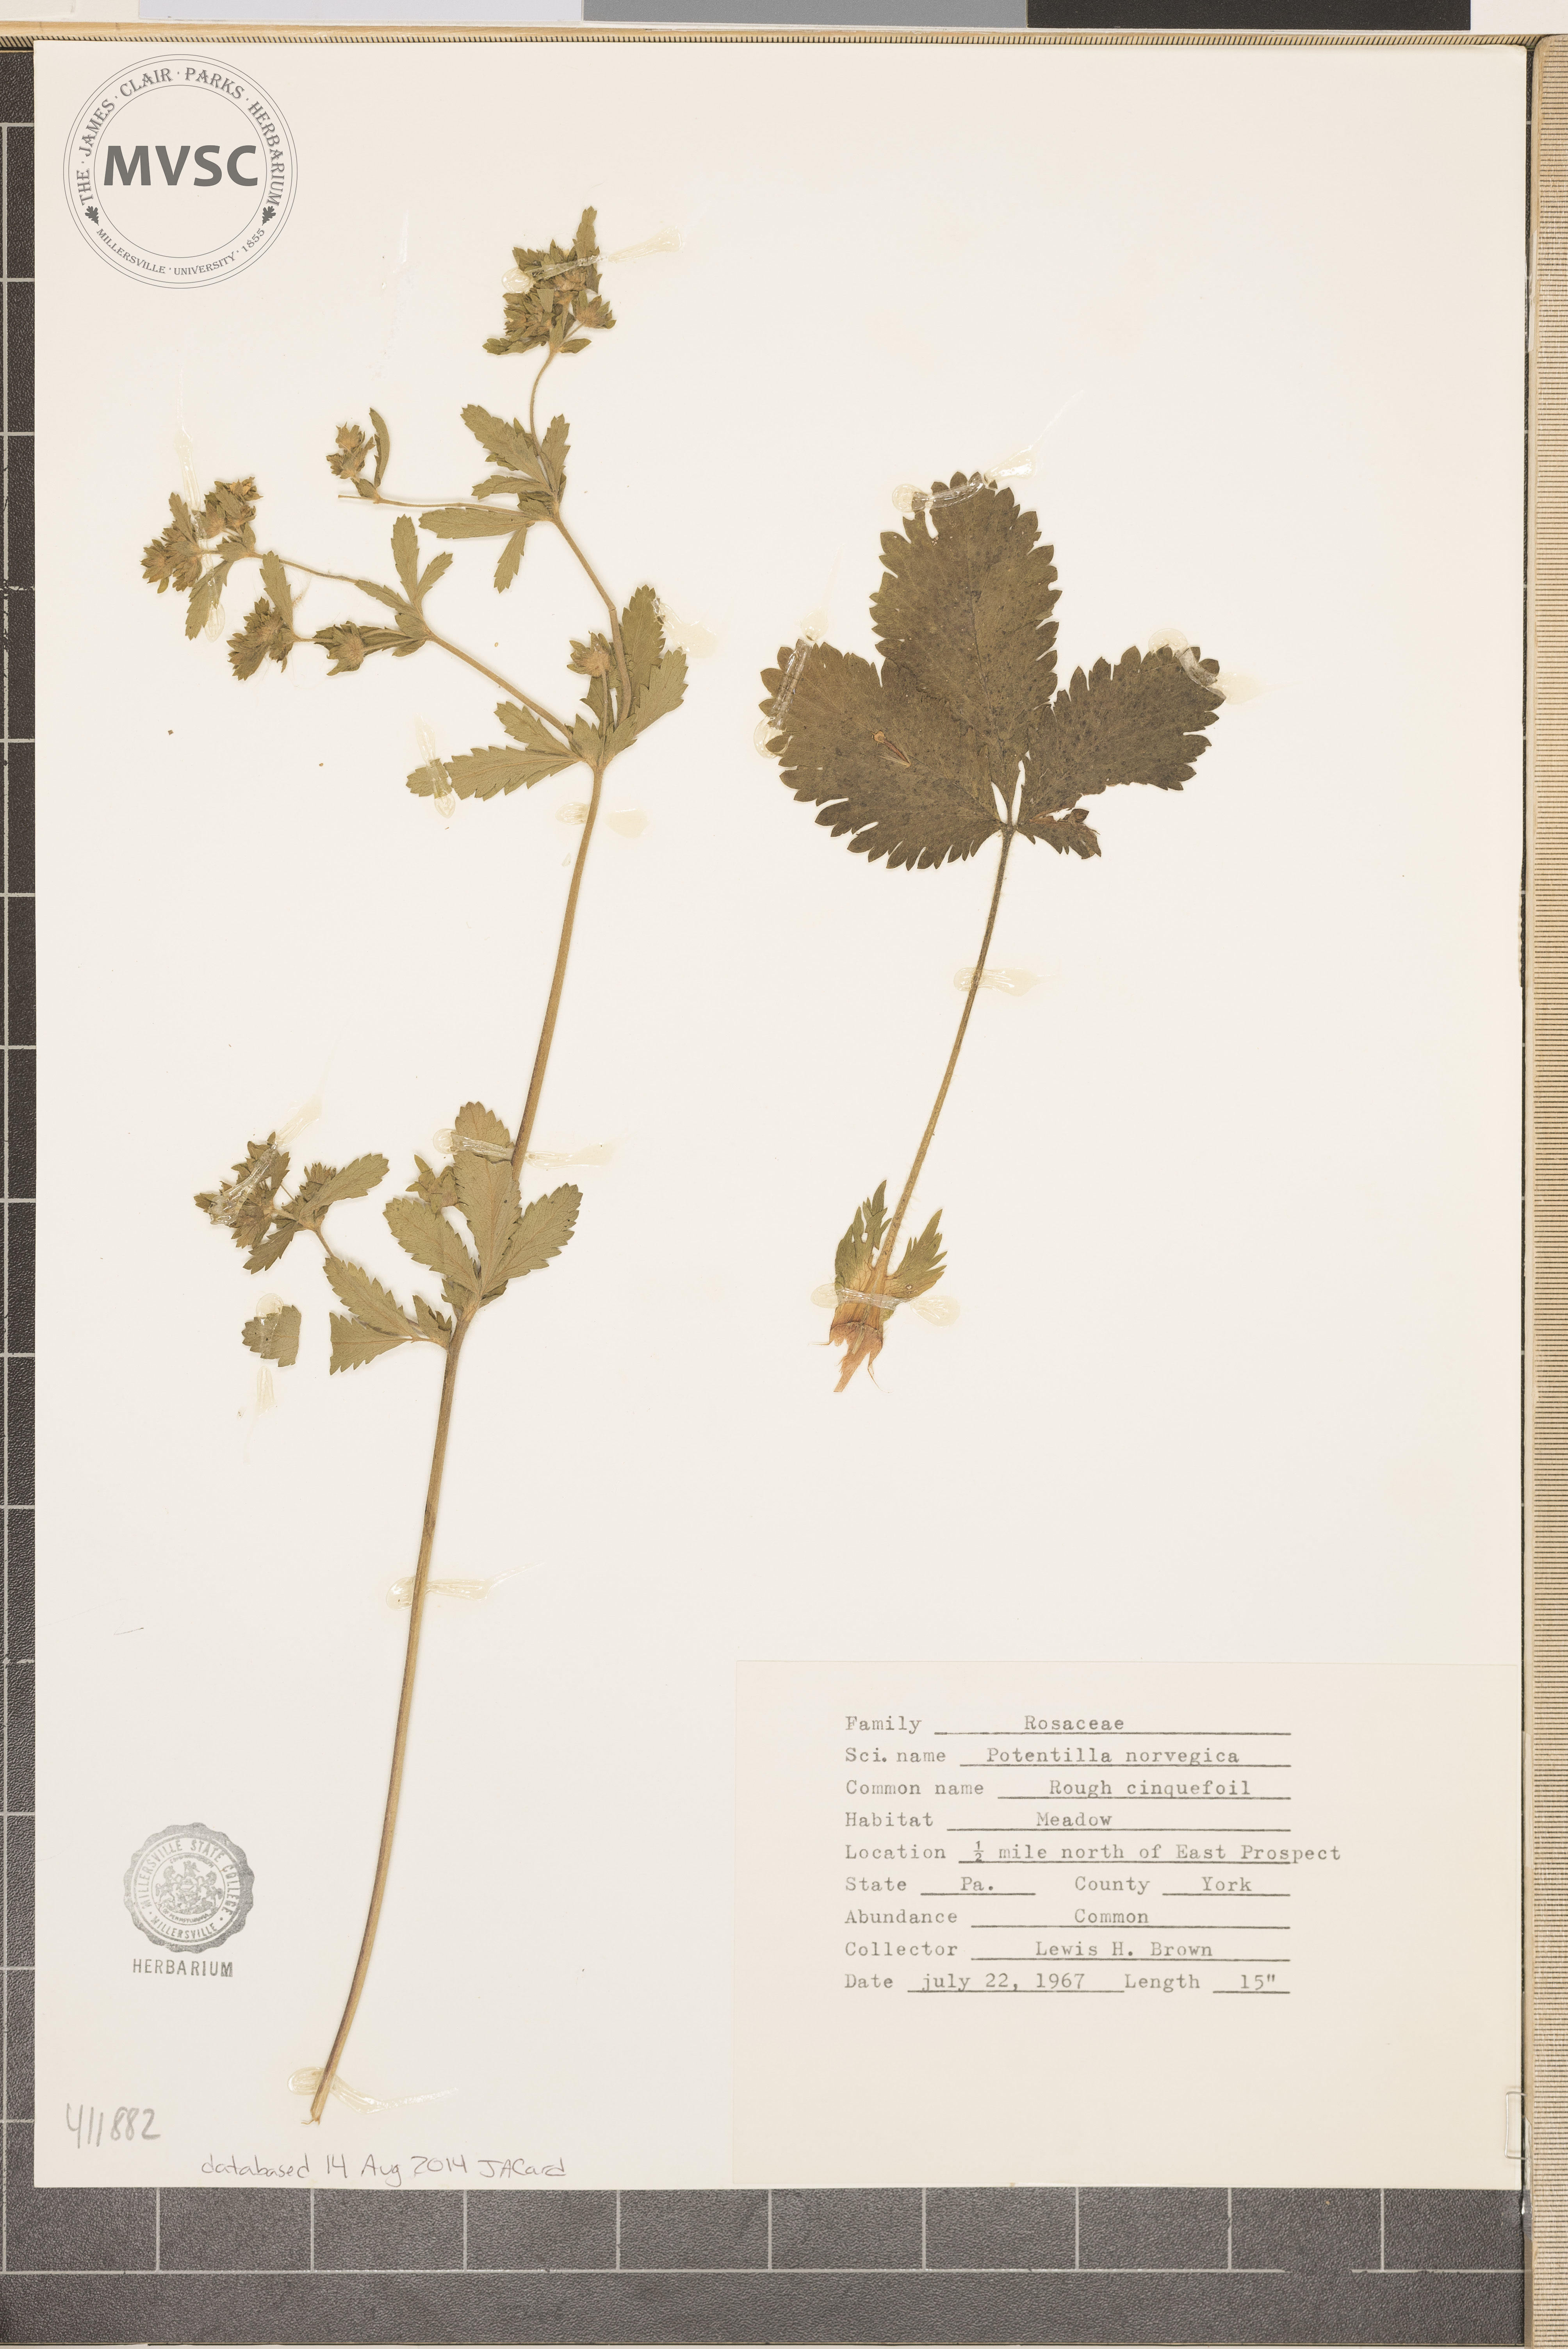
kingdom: Plantae
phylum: Tracheophyta
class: Magnoliopsida
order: Rosales
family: Rosaceae
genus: Potentilla
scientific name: Potentilla norvegica
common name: Rough Cinquefoil
